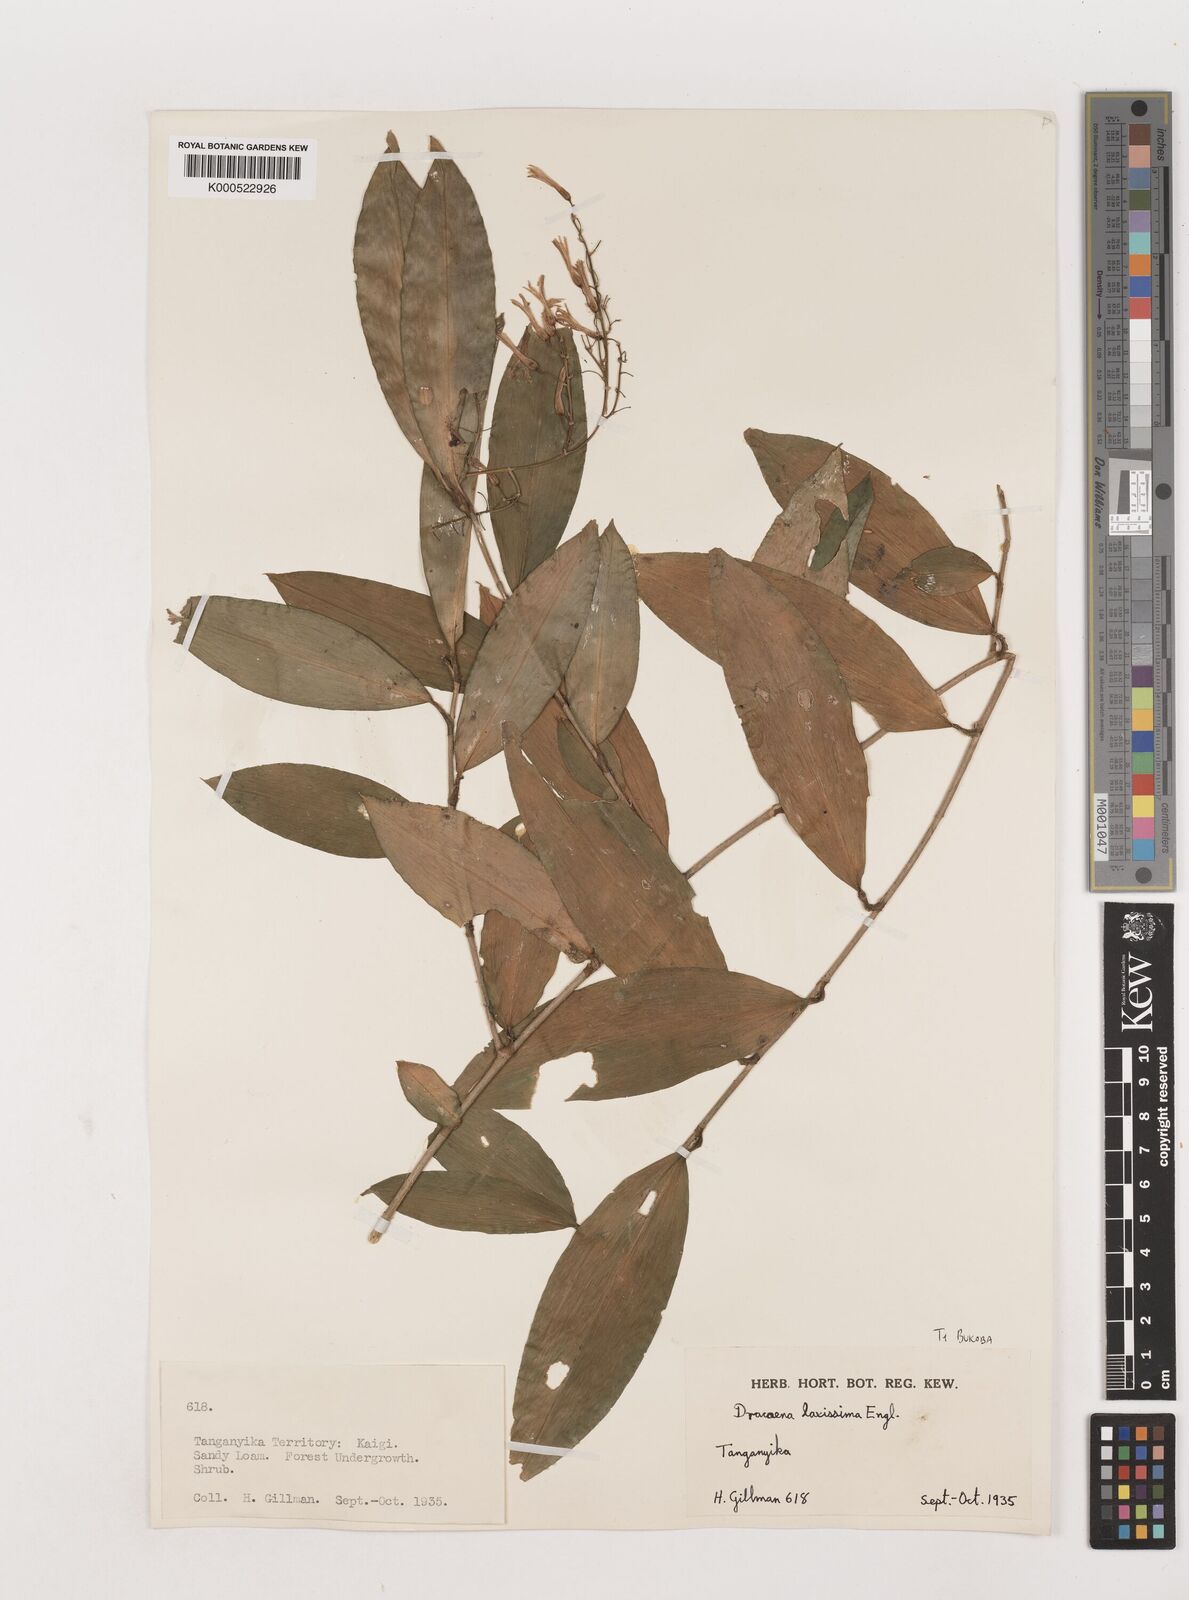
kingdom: Plantae
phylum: Tracheophyta
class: Liliopsida
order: Asparagales
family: Asparagaceae
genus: Dracaena
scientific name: Dracaena laxissima
